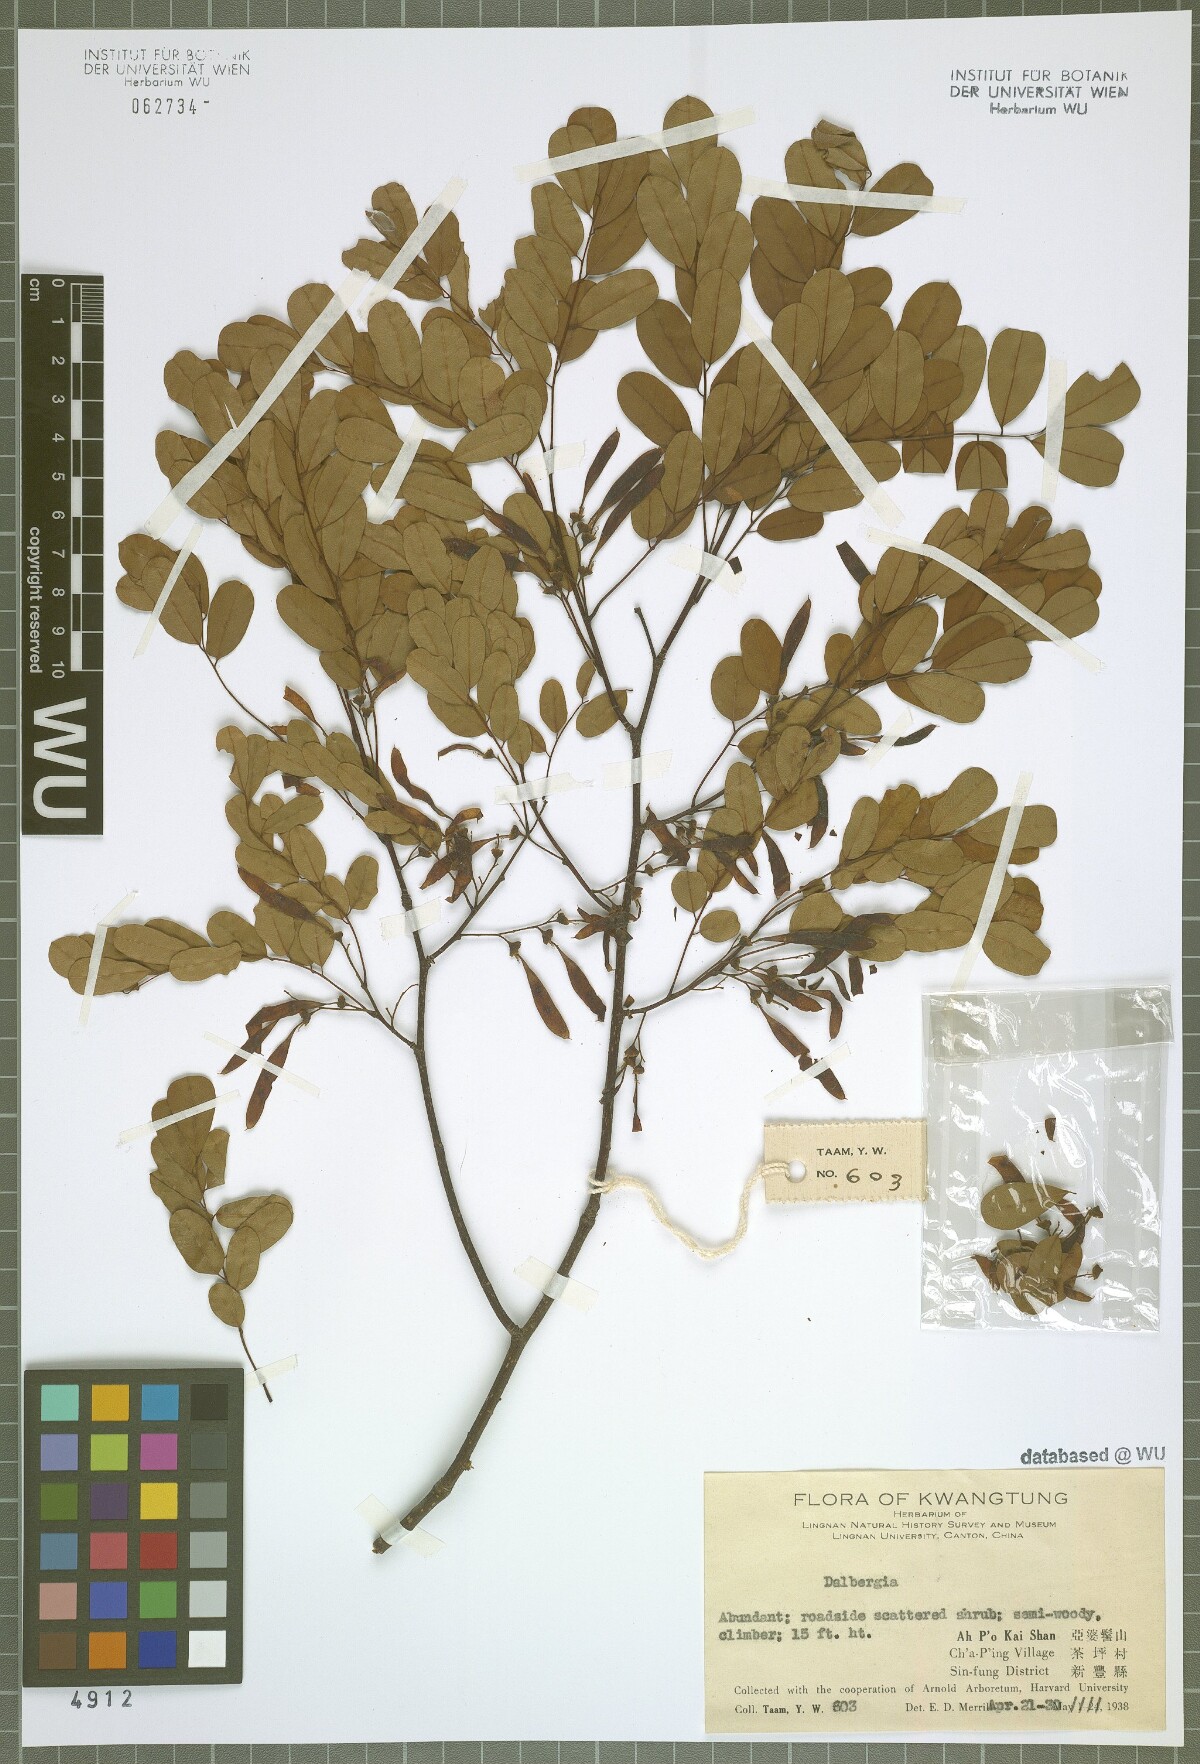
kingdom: Plantae
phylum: Tracheophyta
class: Magnoliopsida
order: Fabales
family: Fabaceae
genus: Dalbergia
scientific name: Dalbergia
